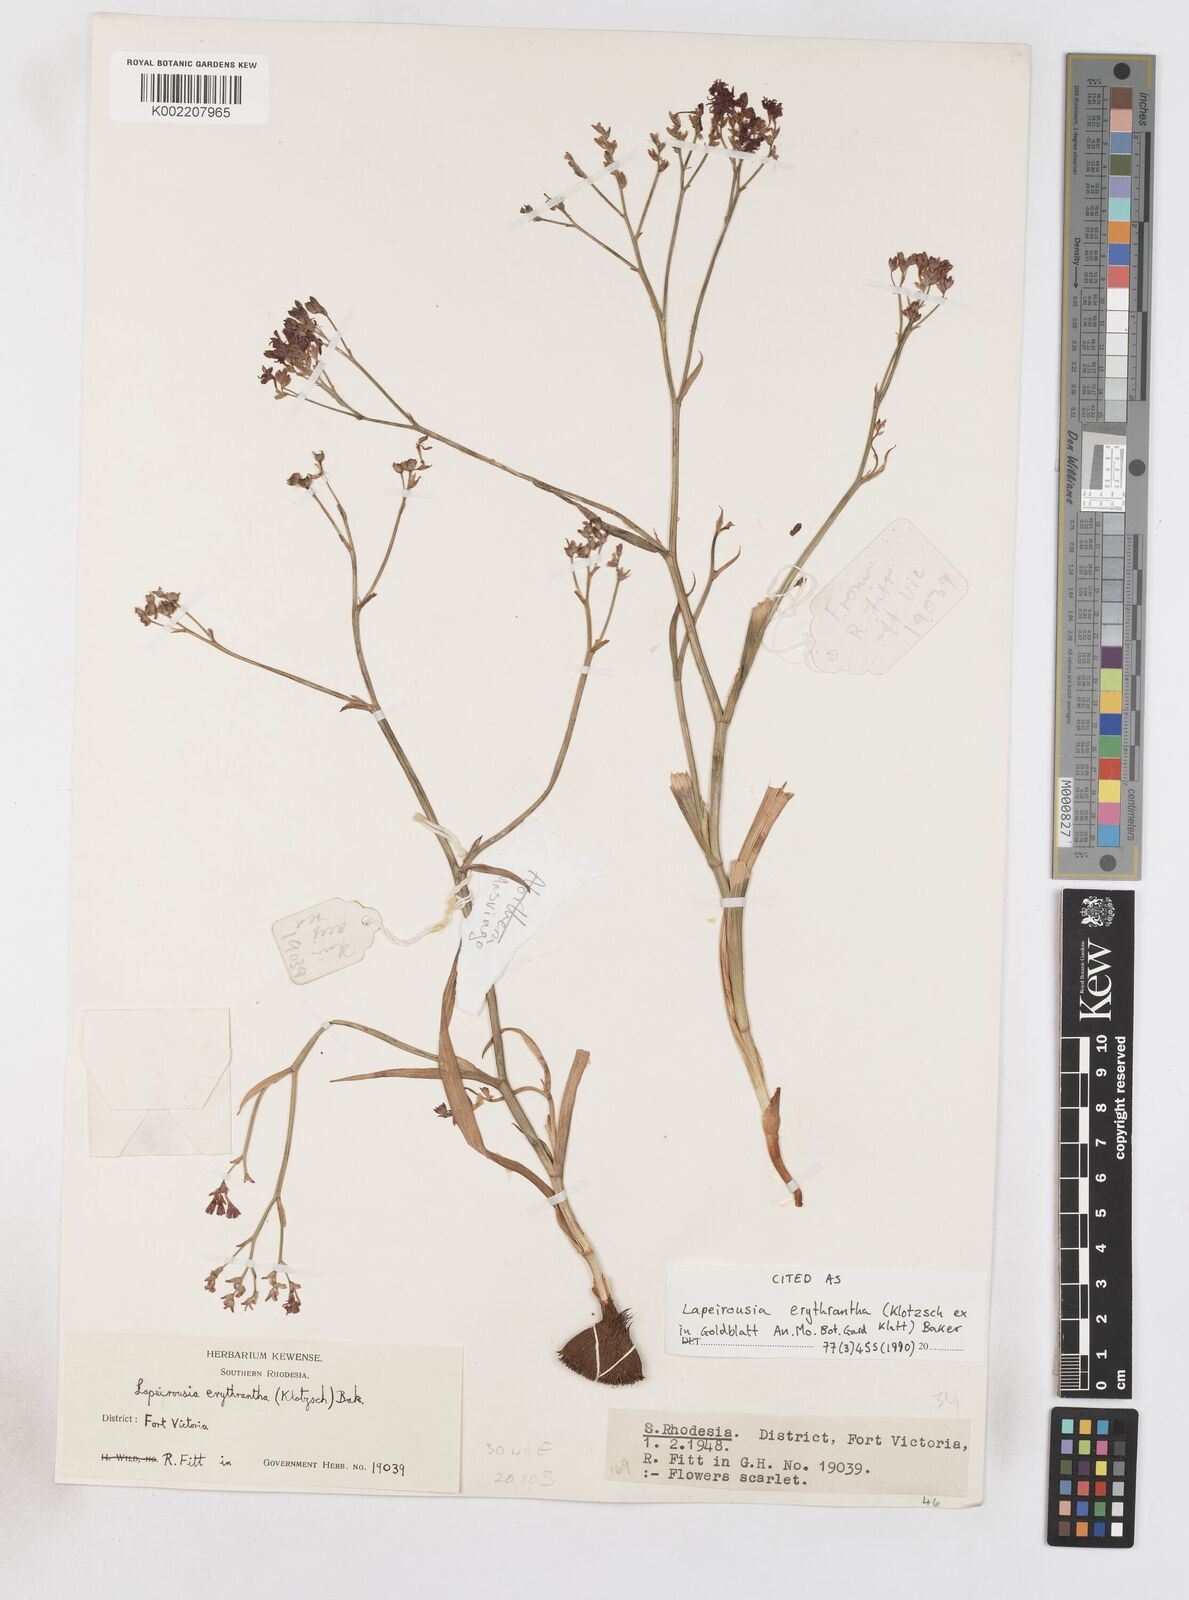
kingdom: Plantae
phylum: Tracheophyta
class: Liliopsida
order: Asparagales
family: Iridaceae
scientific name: Iridaceae
